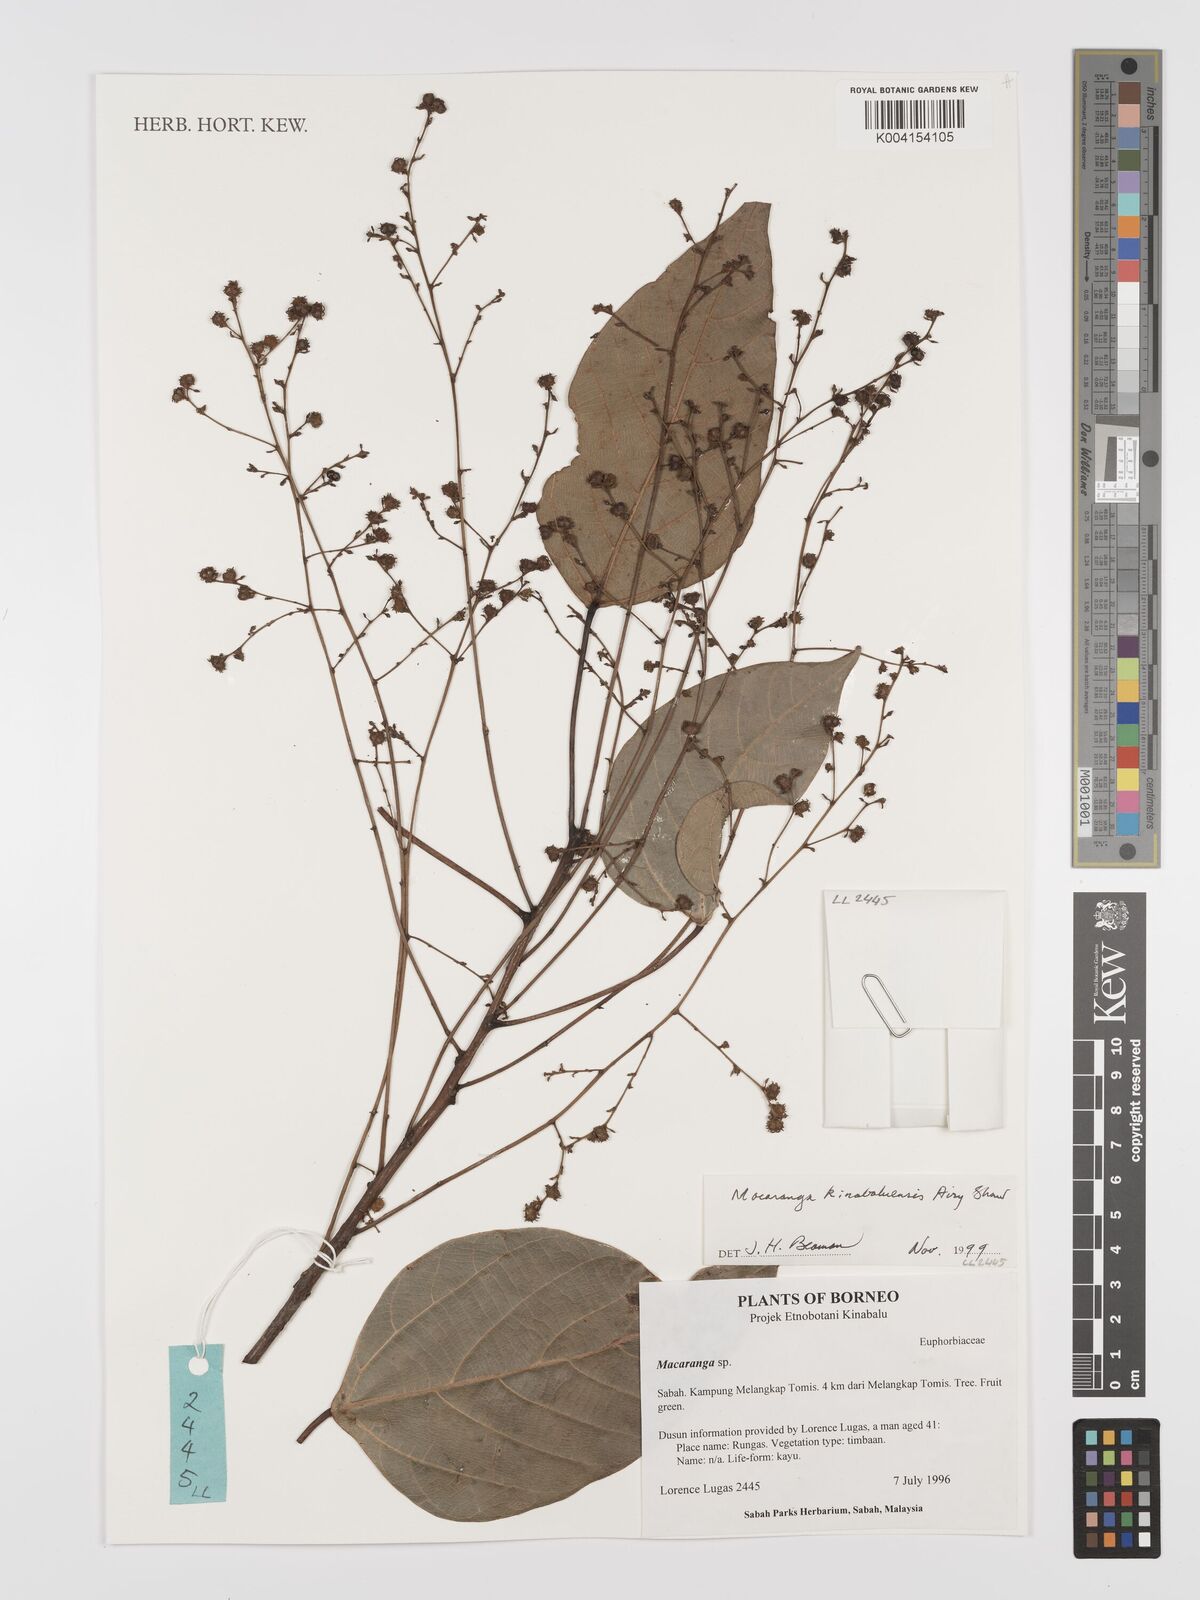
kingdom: Plantae
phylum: Tracheophyta
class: Magnoliopsida
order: Malpighiales
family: Euphorbiaceae
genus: Macaranga
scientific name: Macaranga kinabaluensis
